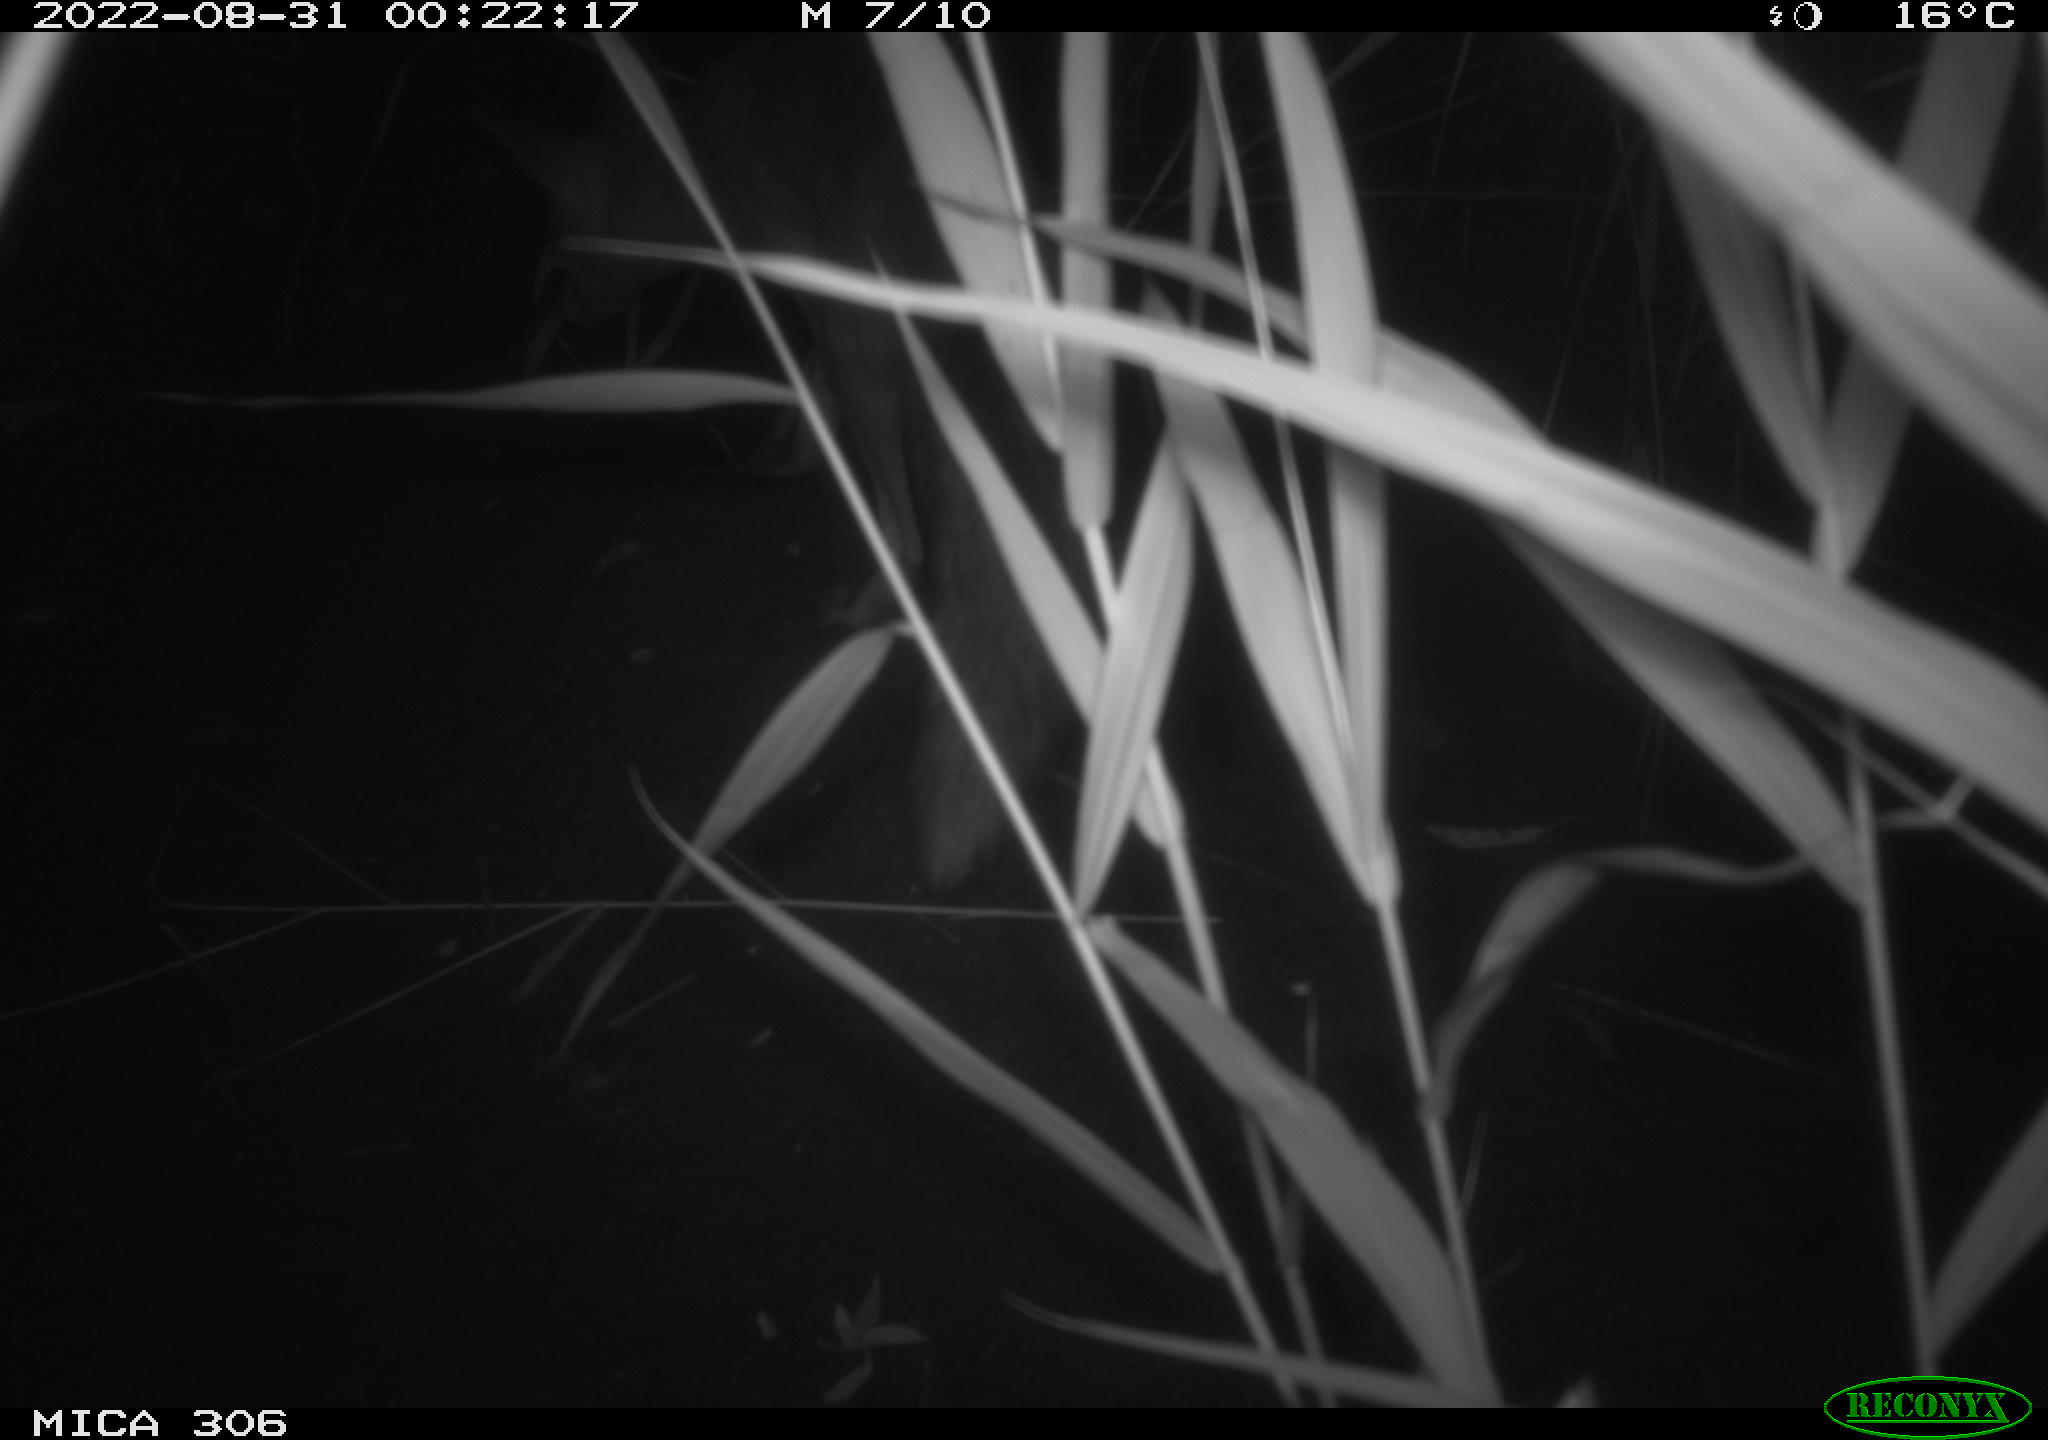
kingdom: Animalia
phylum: Chordata
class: Mammalia
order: Carnivora
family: Canidae
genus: Vulpes
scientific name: Vulpes vulpes
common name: Red fox
